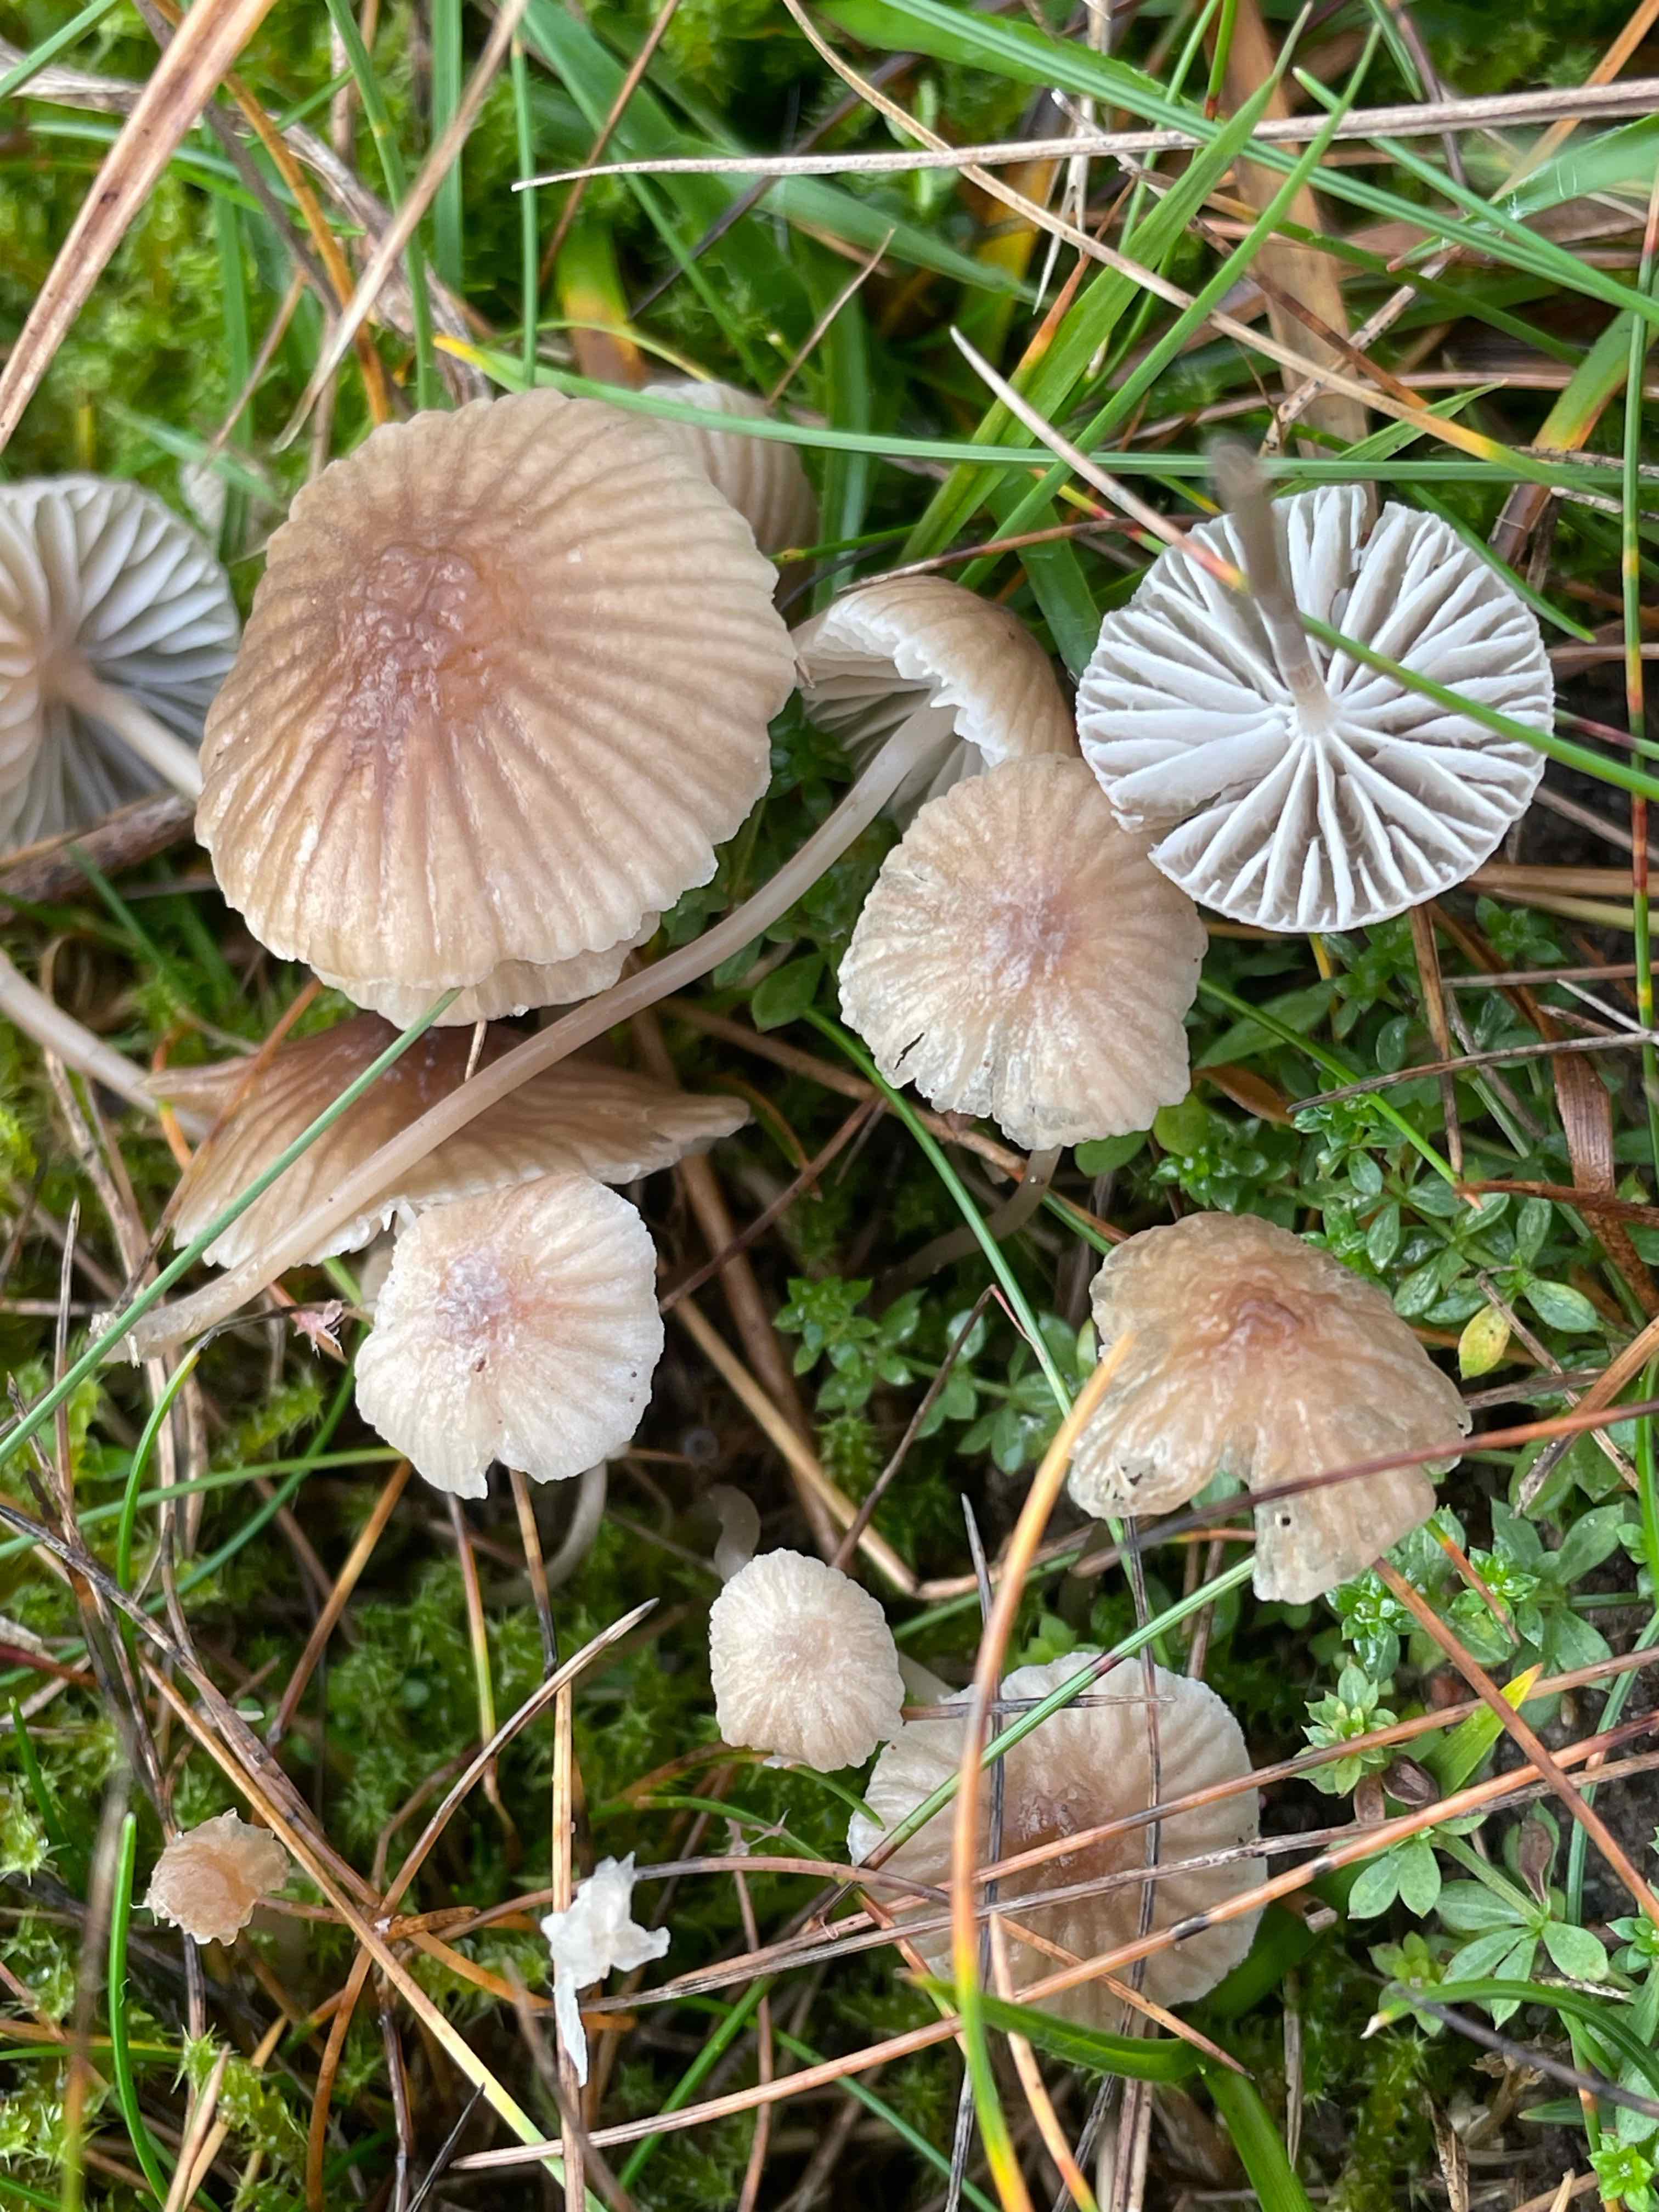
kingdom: Fungi
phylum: Basidiomycota
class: Agaricomycetes
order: Agaricales
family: Mycenaceae
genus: Mycena
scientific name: Mycena
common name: huesvamp
